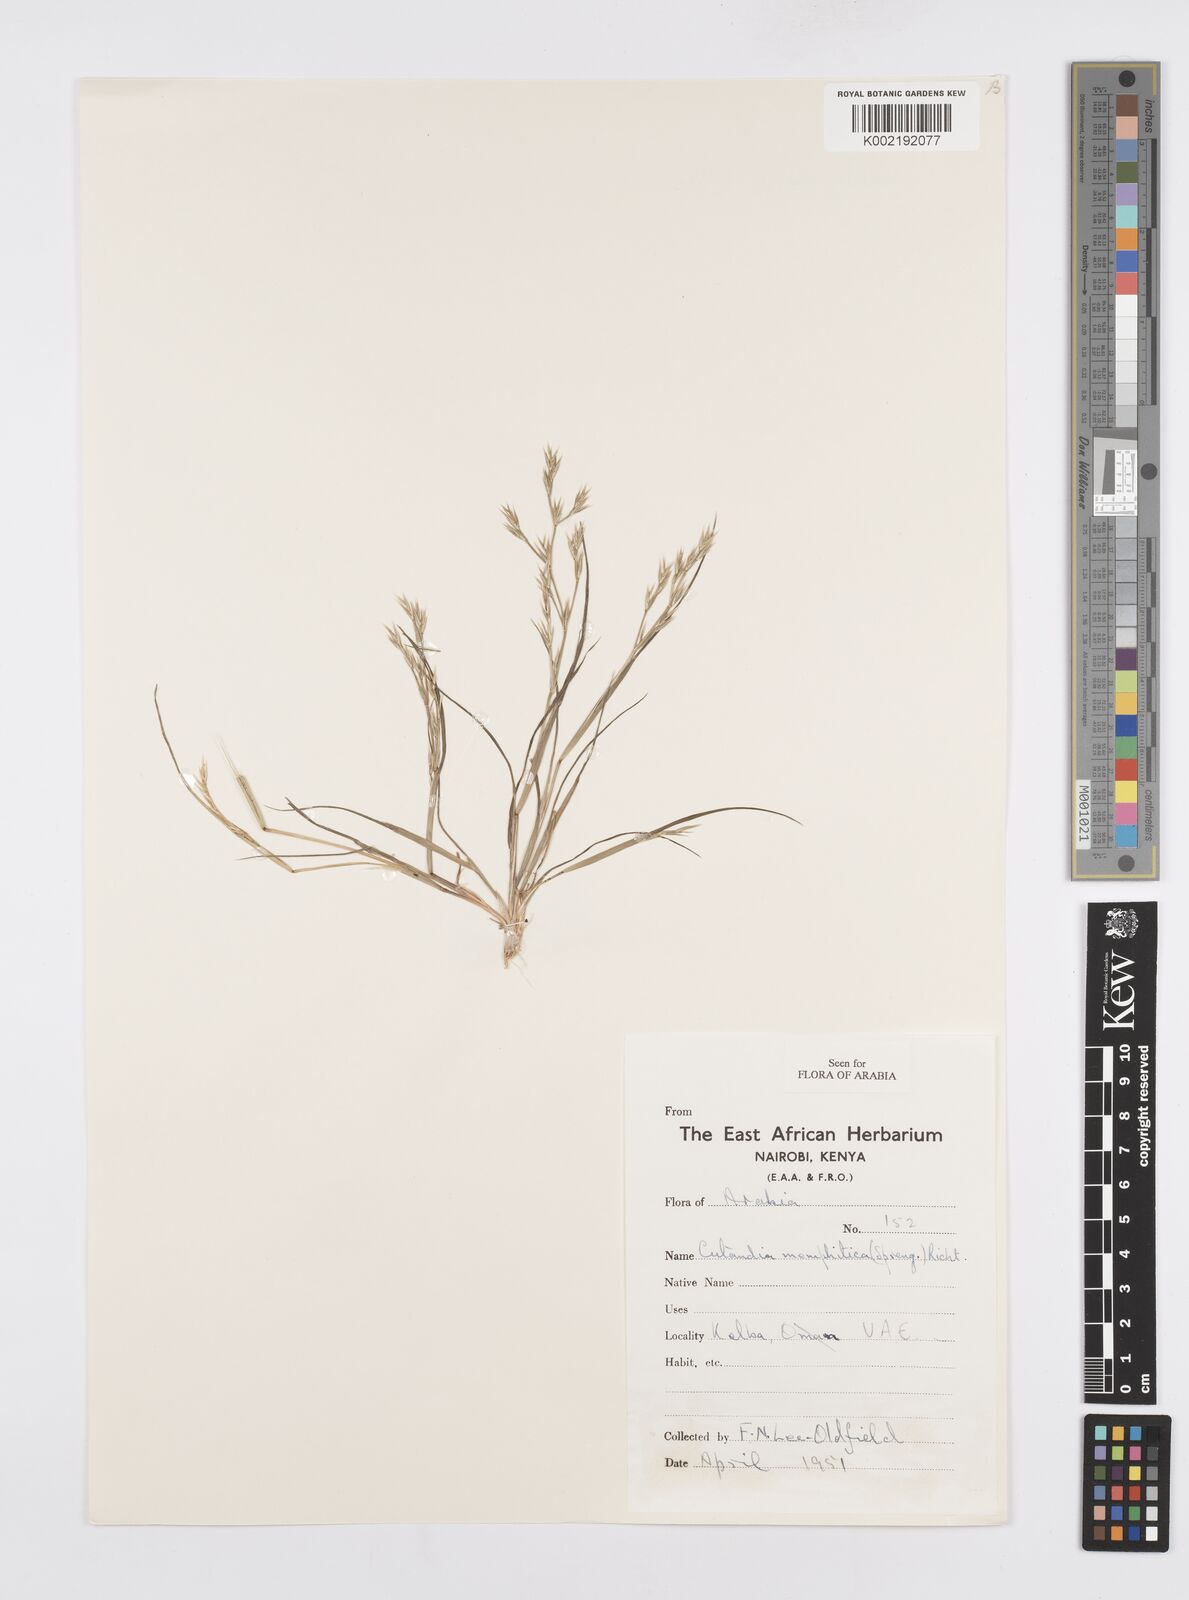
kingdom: Plantae
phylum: Tracheophyta
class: Liliopsida
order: Poales
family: Poaceae
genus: Cutandia
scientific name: Cutandia memphitica
